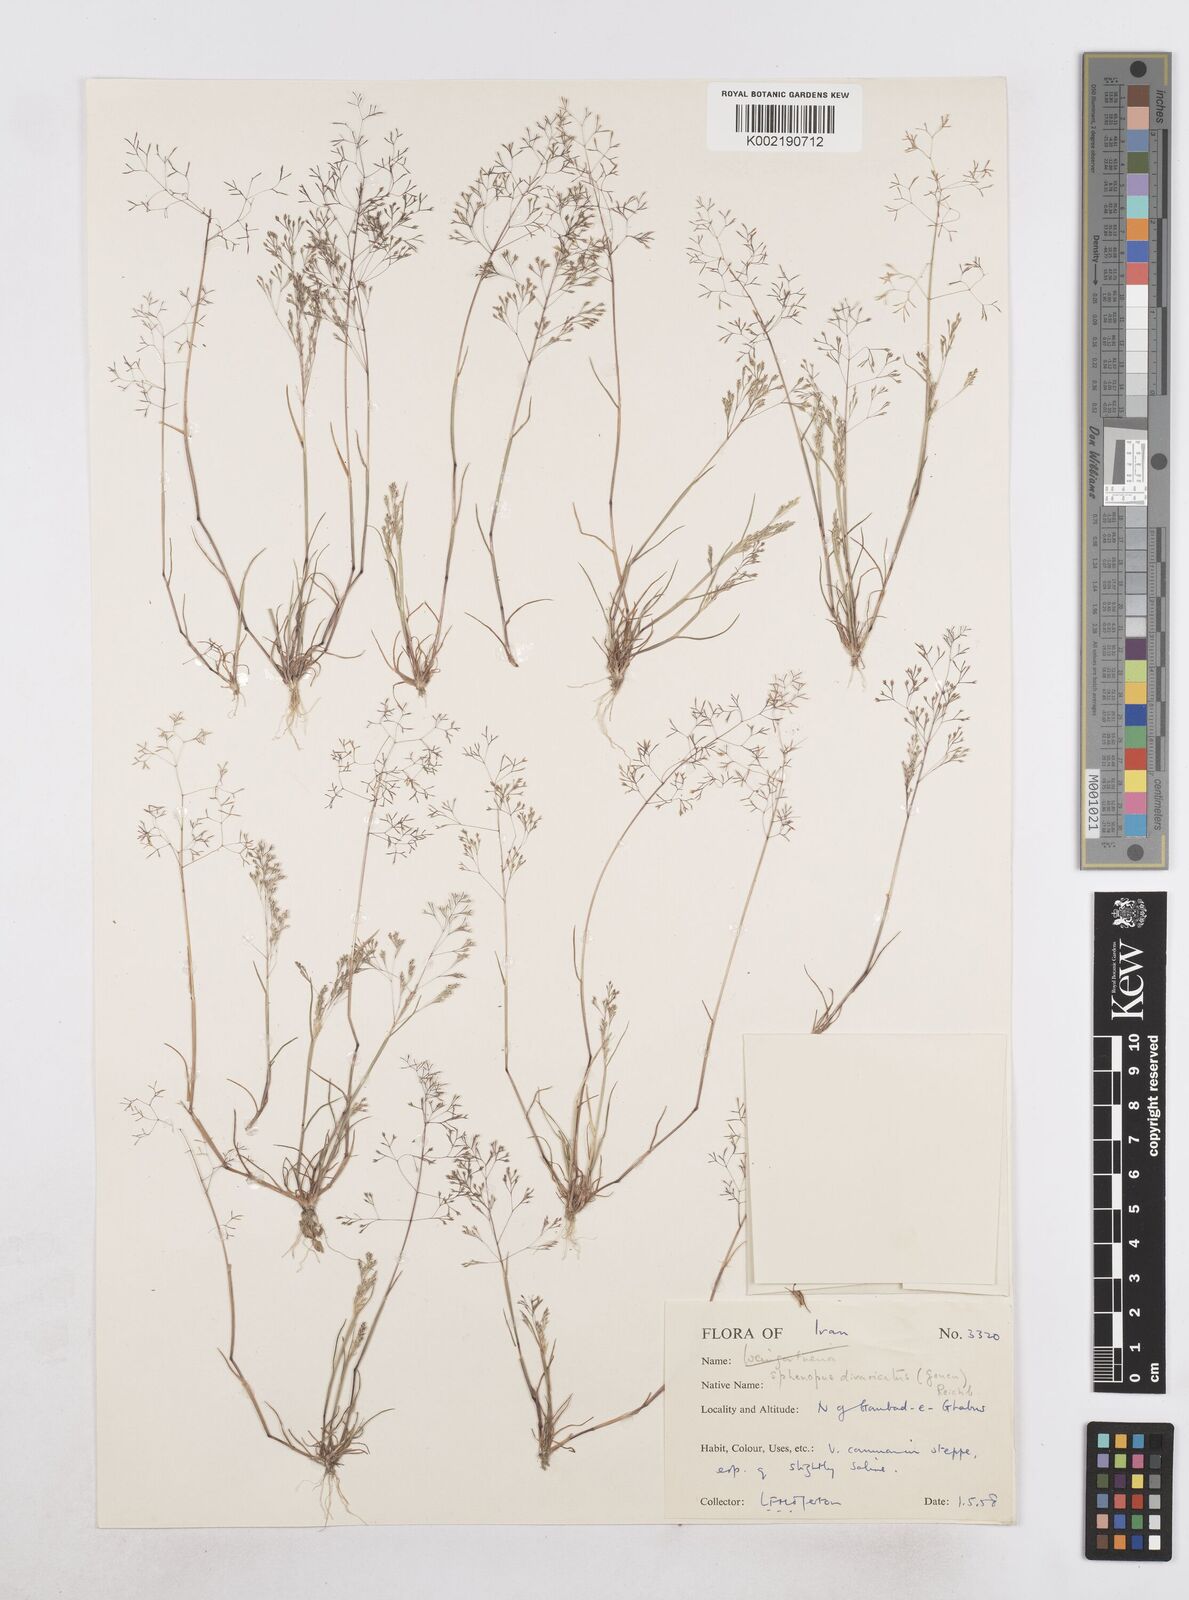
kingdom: Plantae
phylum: Tracheophyta
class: Liliopsida
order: Poales
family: Poaceae
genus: Sphenopus
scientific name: Sphenopus divaricatus
